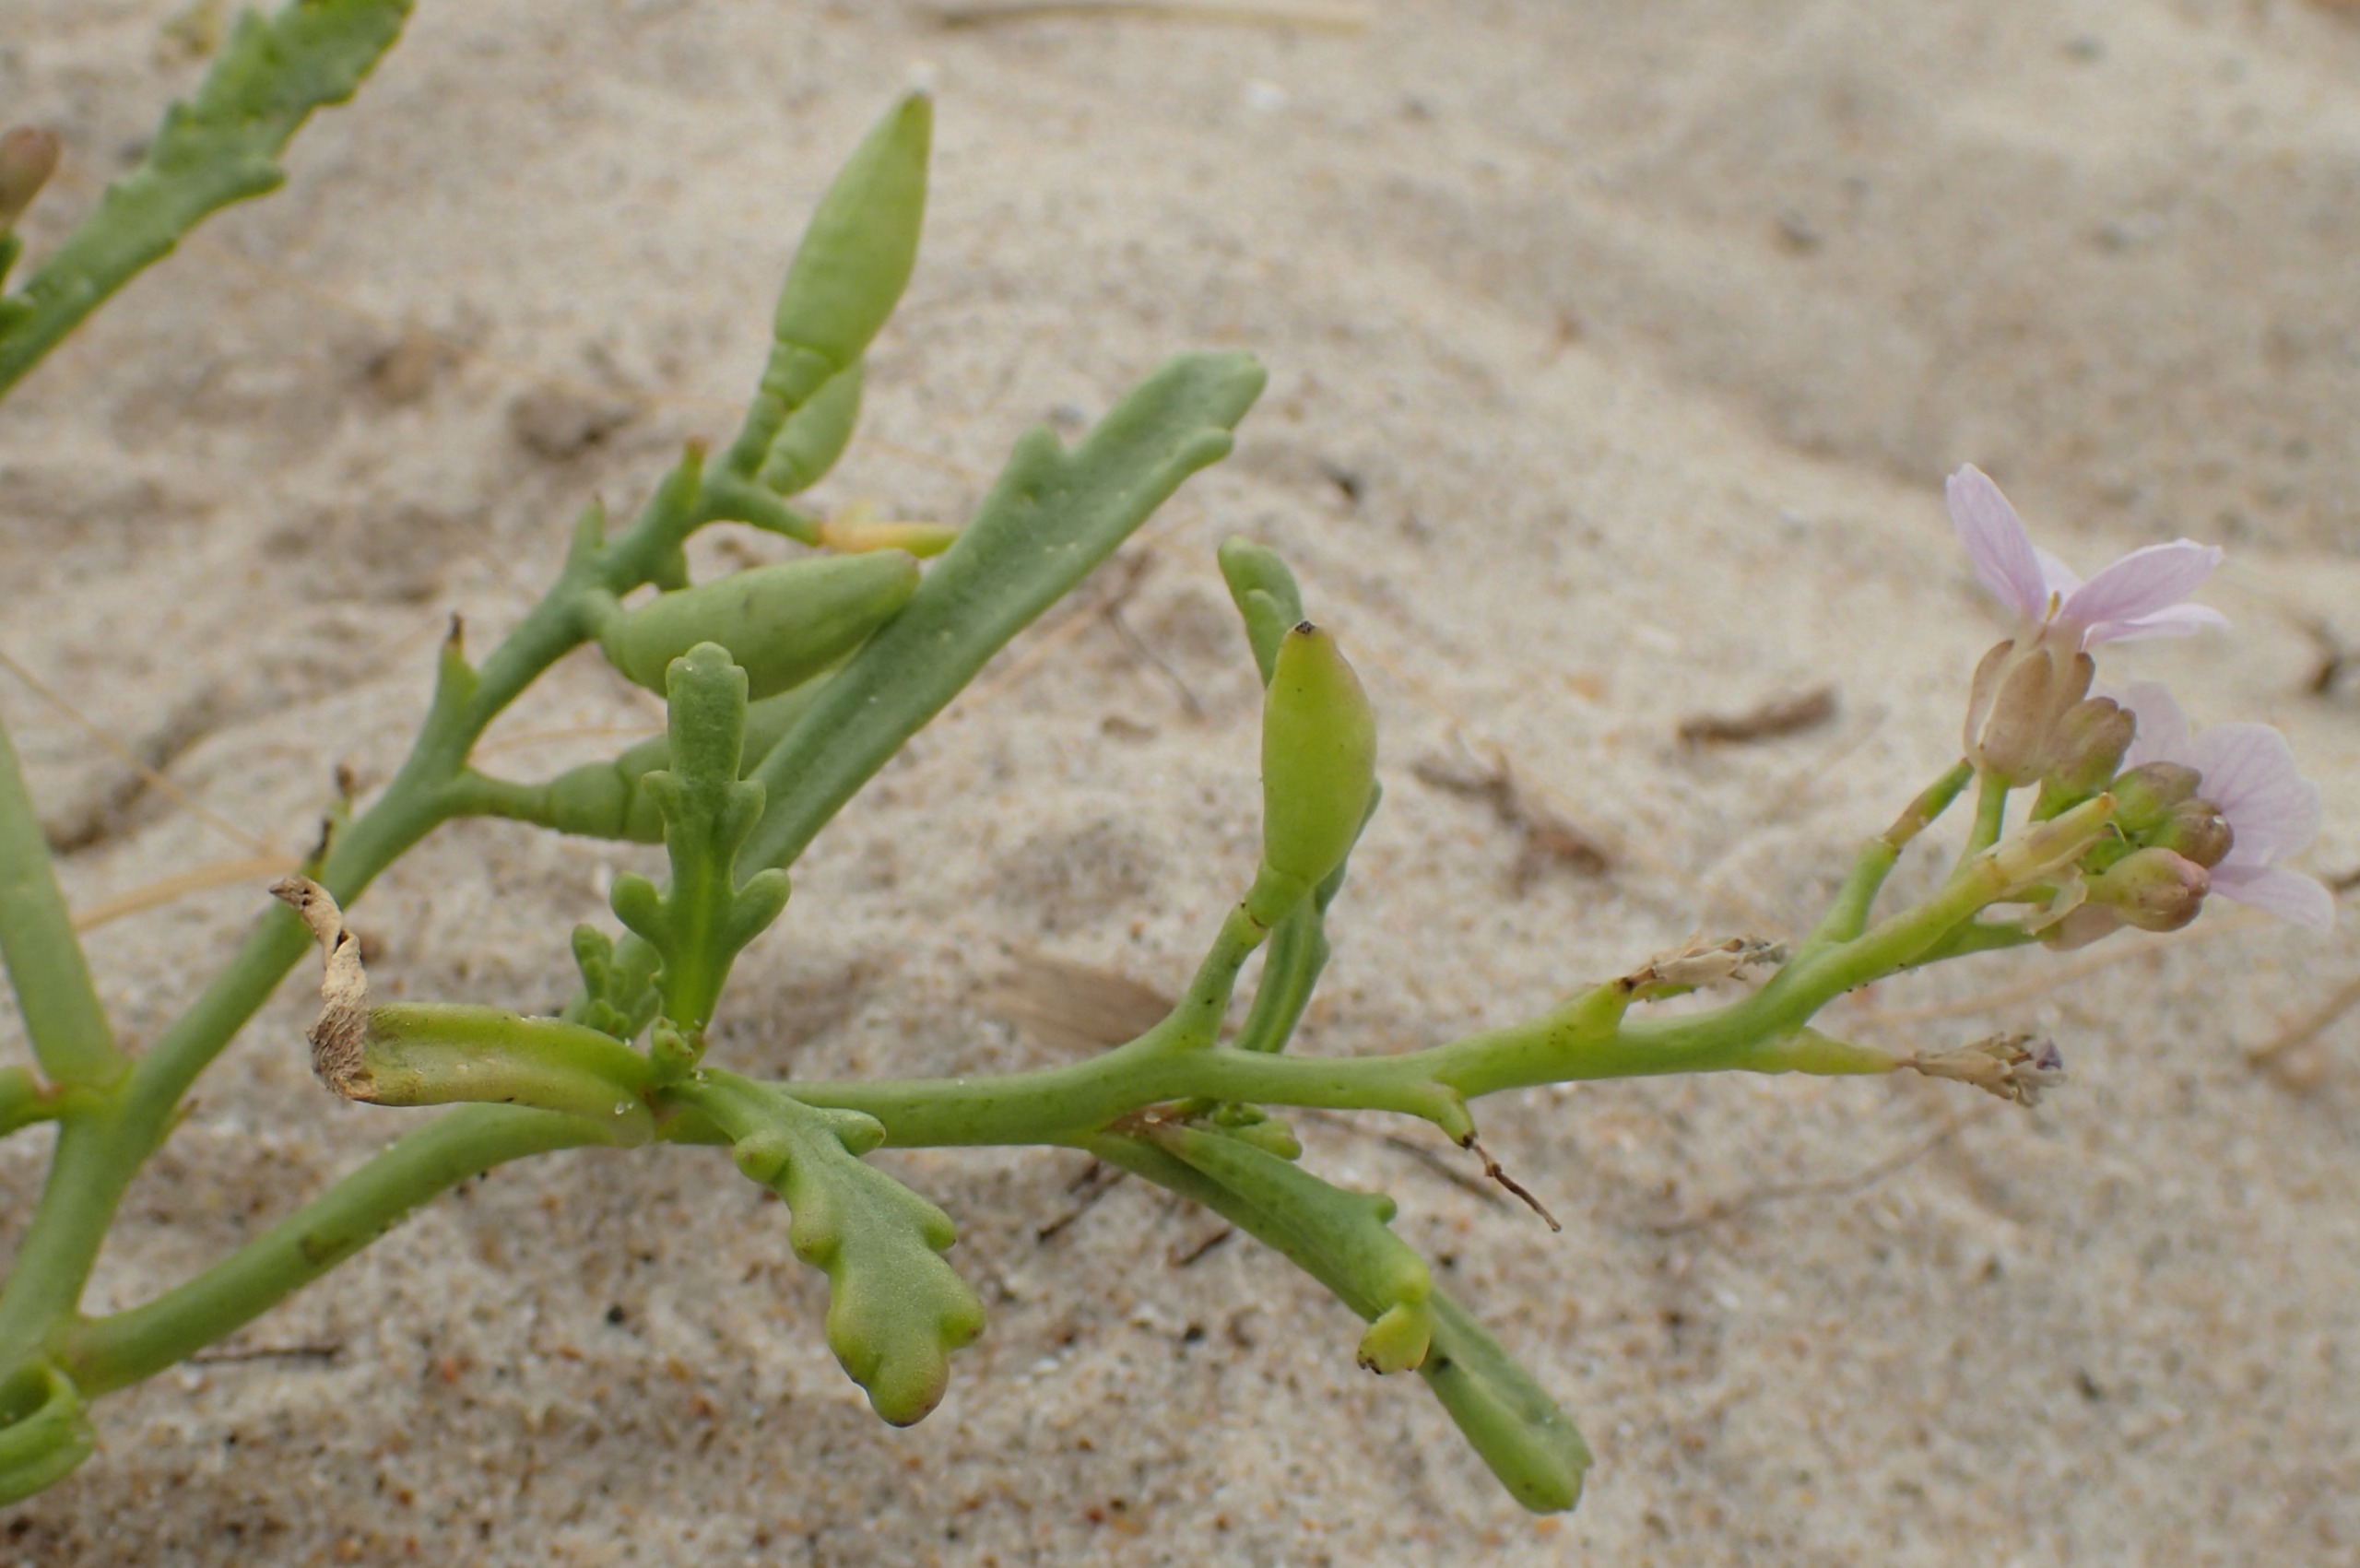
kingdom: Plantae
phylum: Tracheophyta
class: Magnoliopsida
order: Brassicales
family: Brassicaceae
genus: Cakile
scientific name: Cakile maritima
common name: Vesterhavs-strandsennep
